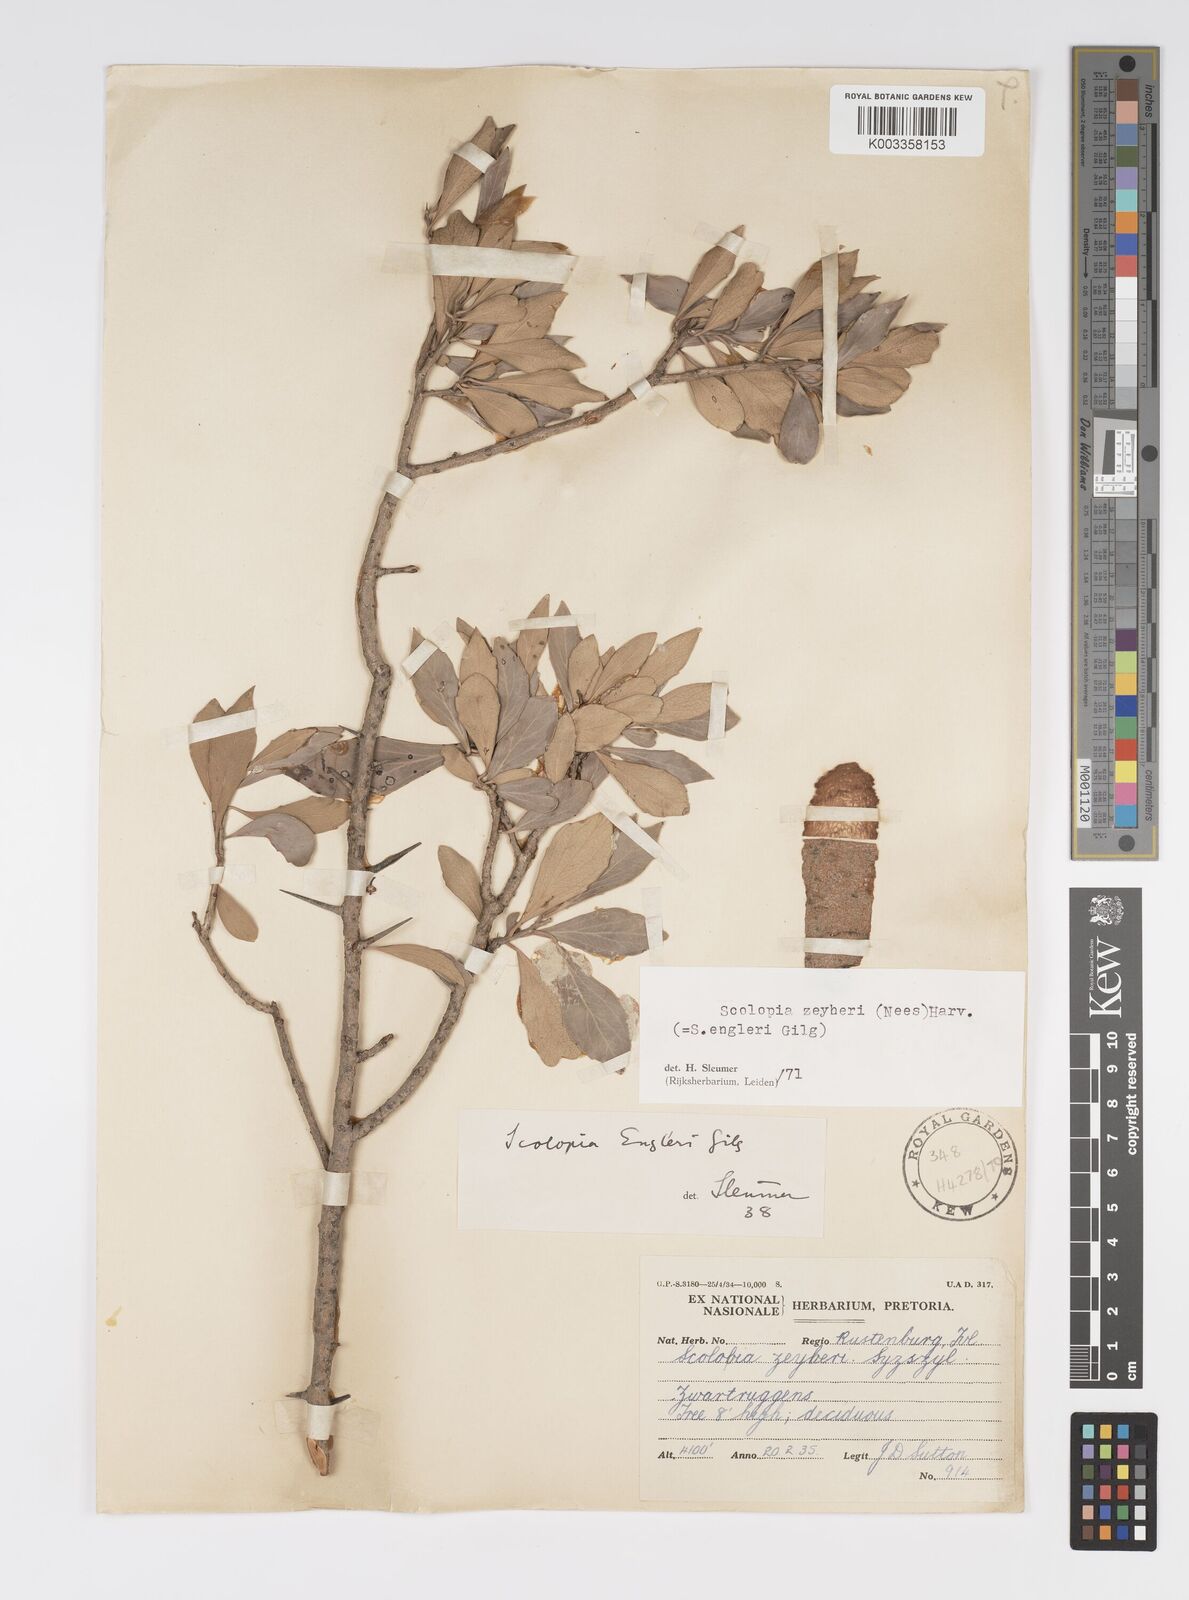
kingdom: Plantae
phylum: Tracheophyta
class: Magnoliopsida
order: Malpighiales
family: Salicaceae
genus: Scolopia
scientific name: Scolopia zeyheri
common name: Thorn pear
